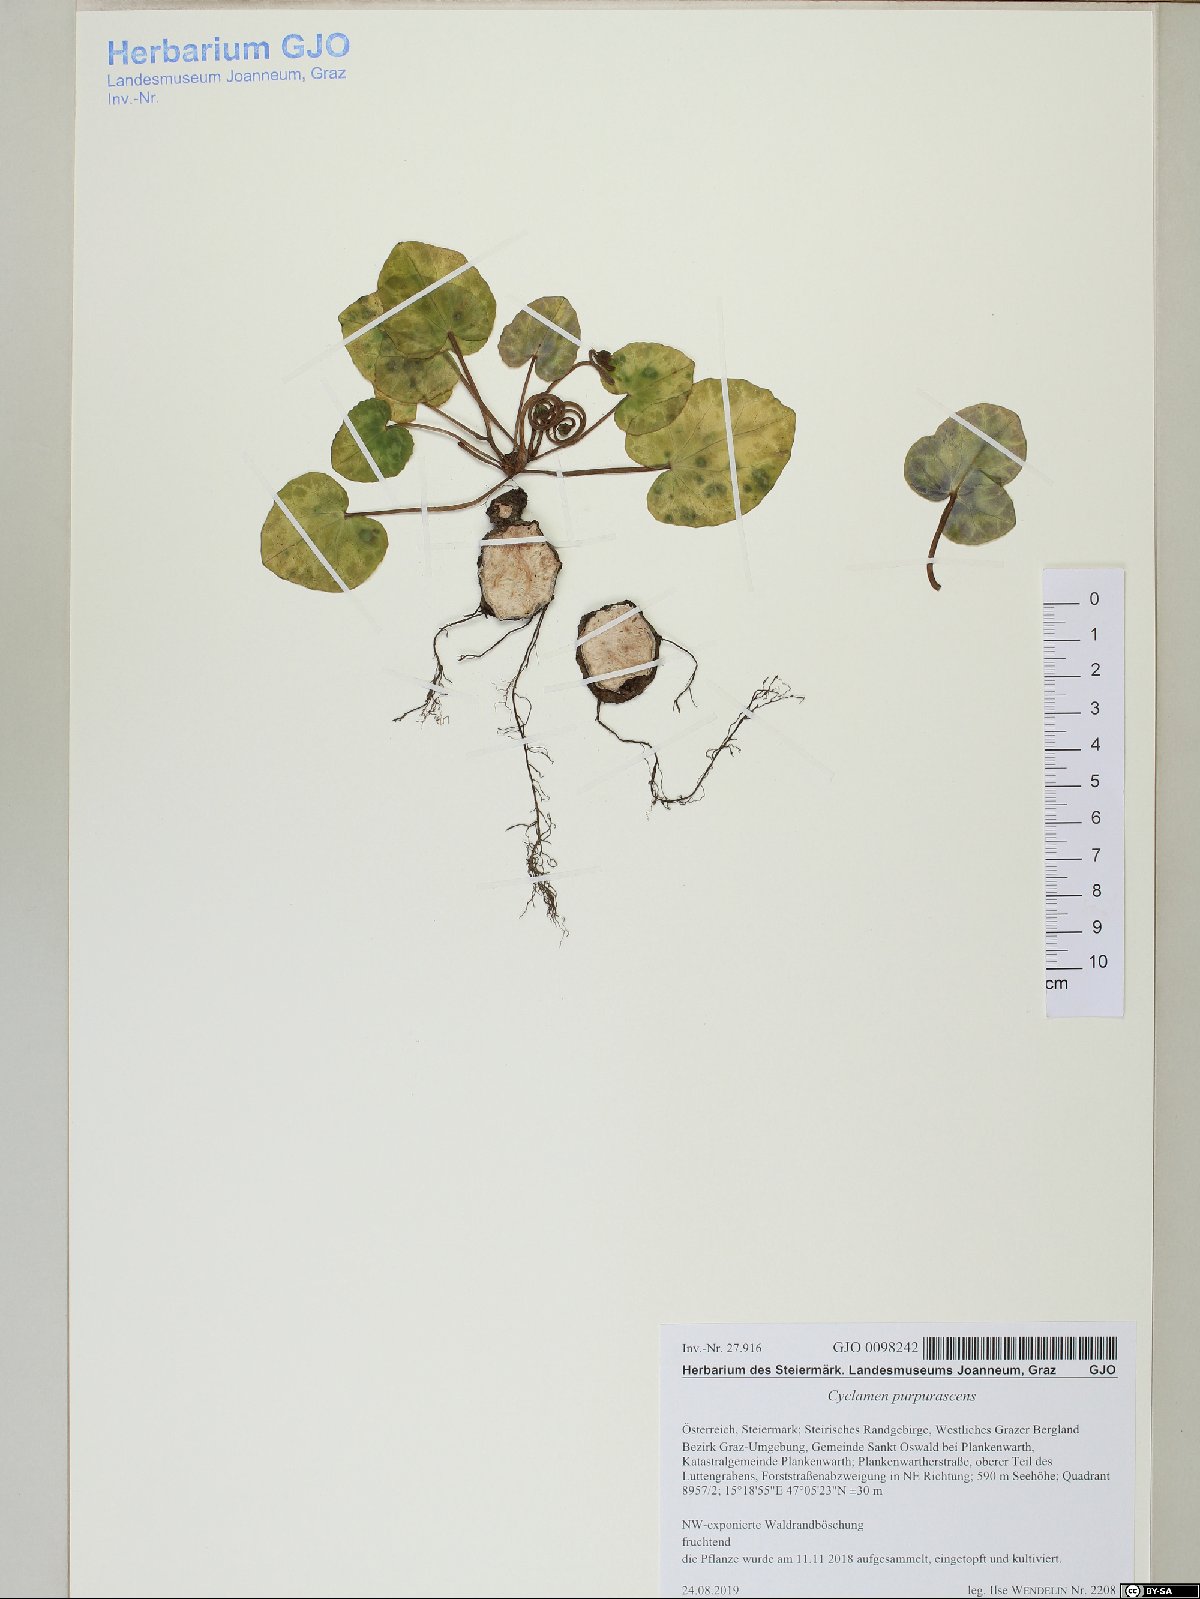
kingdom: Plantae
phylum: Tracheophyta
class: Magnoliopsida
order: Ericales
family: Primulaceae
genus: Cyclamen
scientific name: Cyclamen purpurascens
